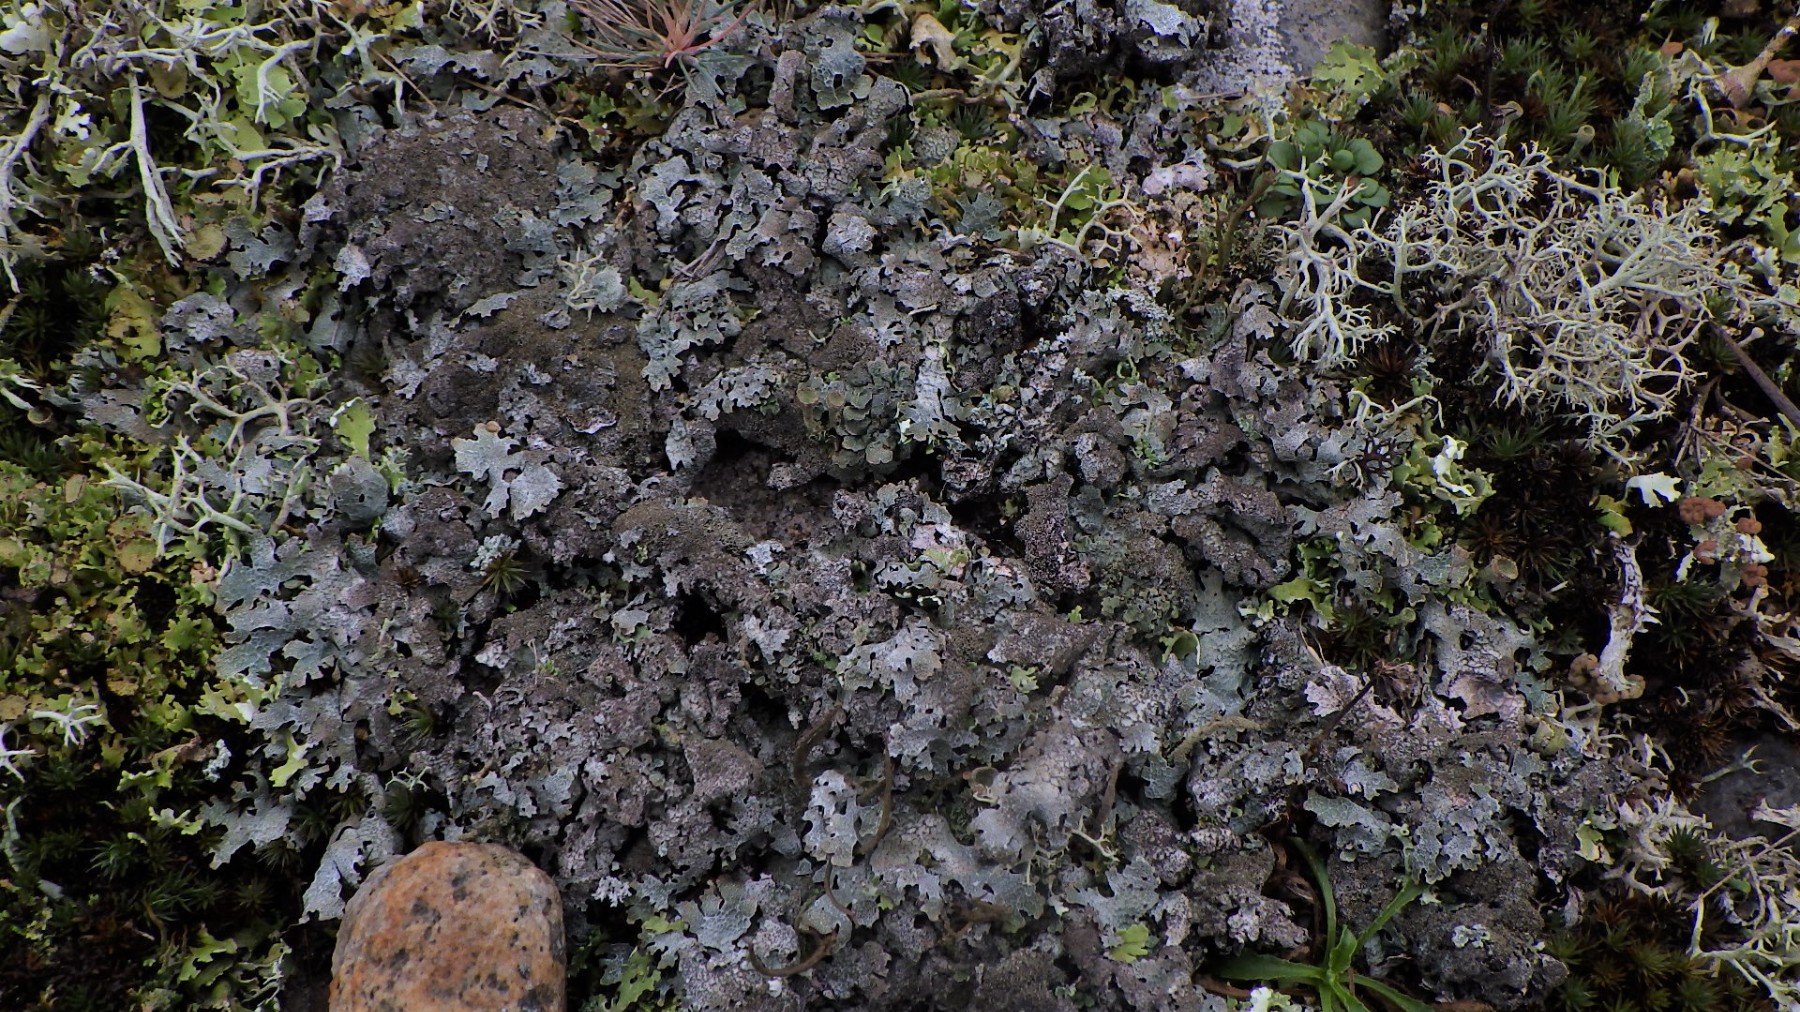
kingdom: Fungi
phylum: Ascomycota
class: Lecanoromycetes
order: Lecanorales
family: Parmeliaceae
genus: Parmelia
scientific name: Parmelia
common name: farve-skållav
